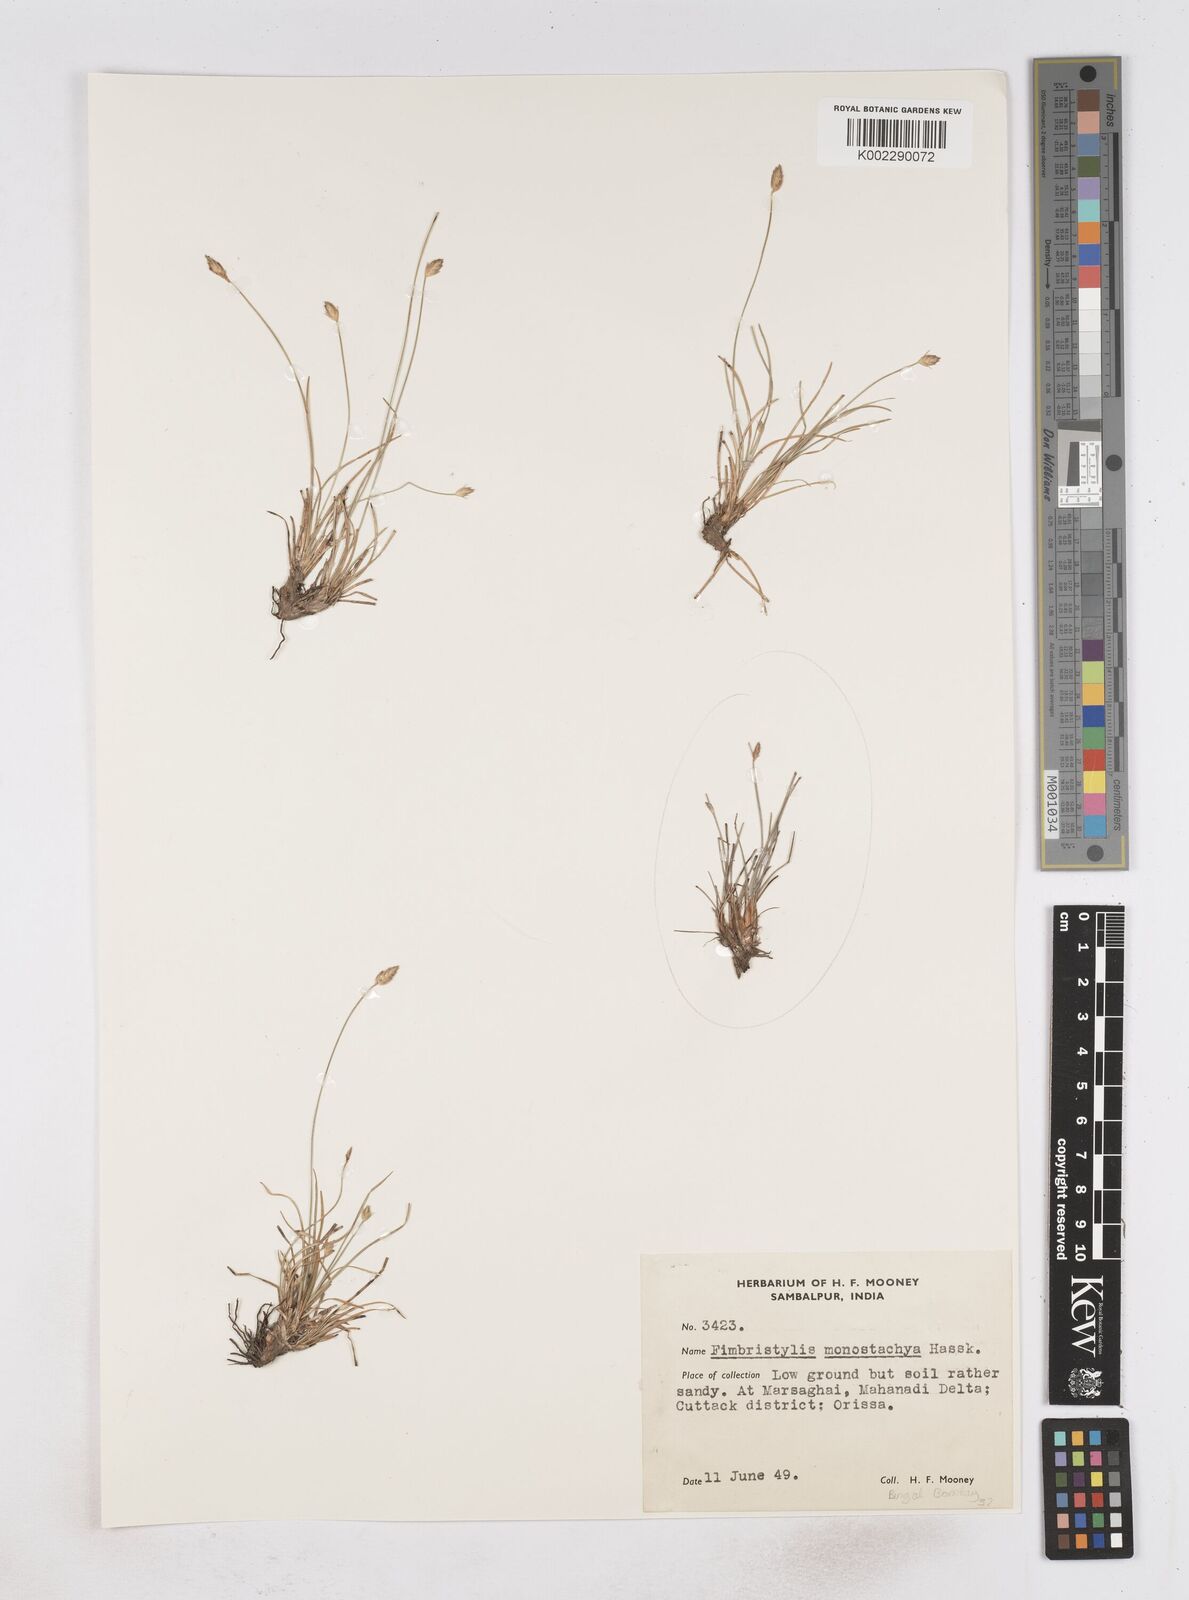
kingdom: Plantae
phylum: Tracheophyta
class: Liliopsida
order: Poales
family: Cyperaceae
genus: Abildgaardia
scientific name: Abildgaardia ovata
